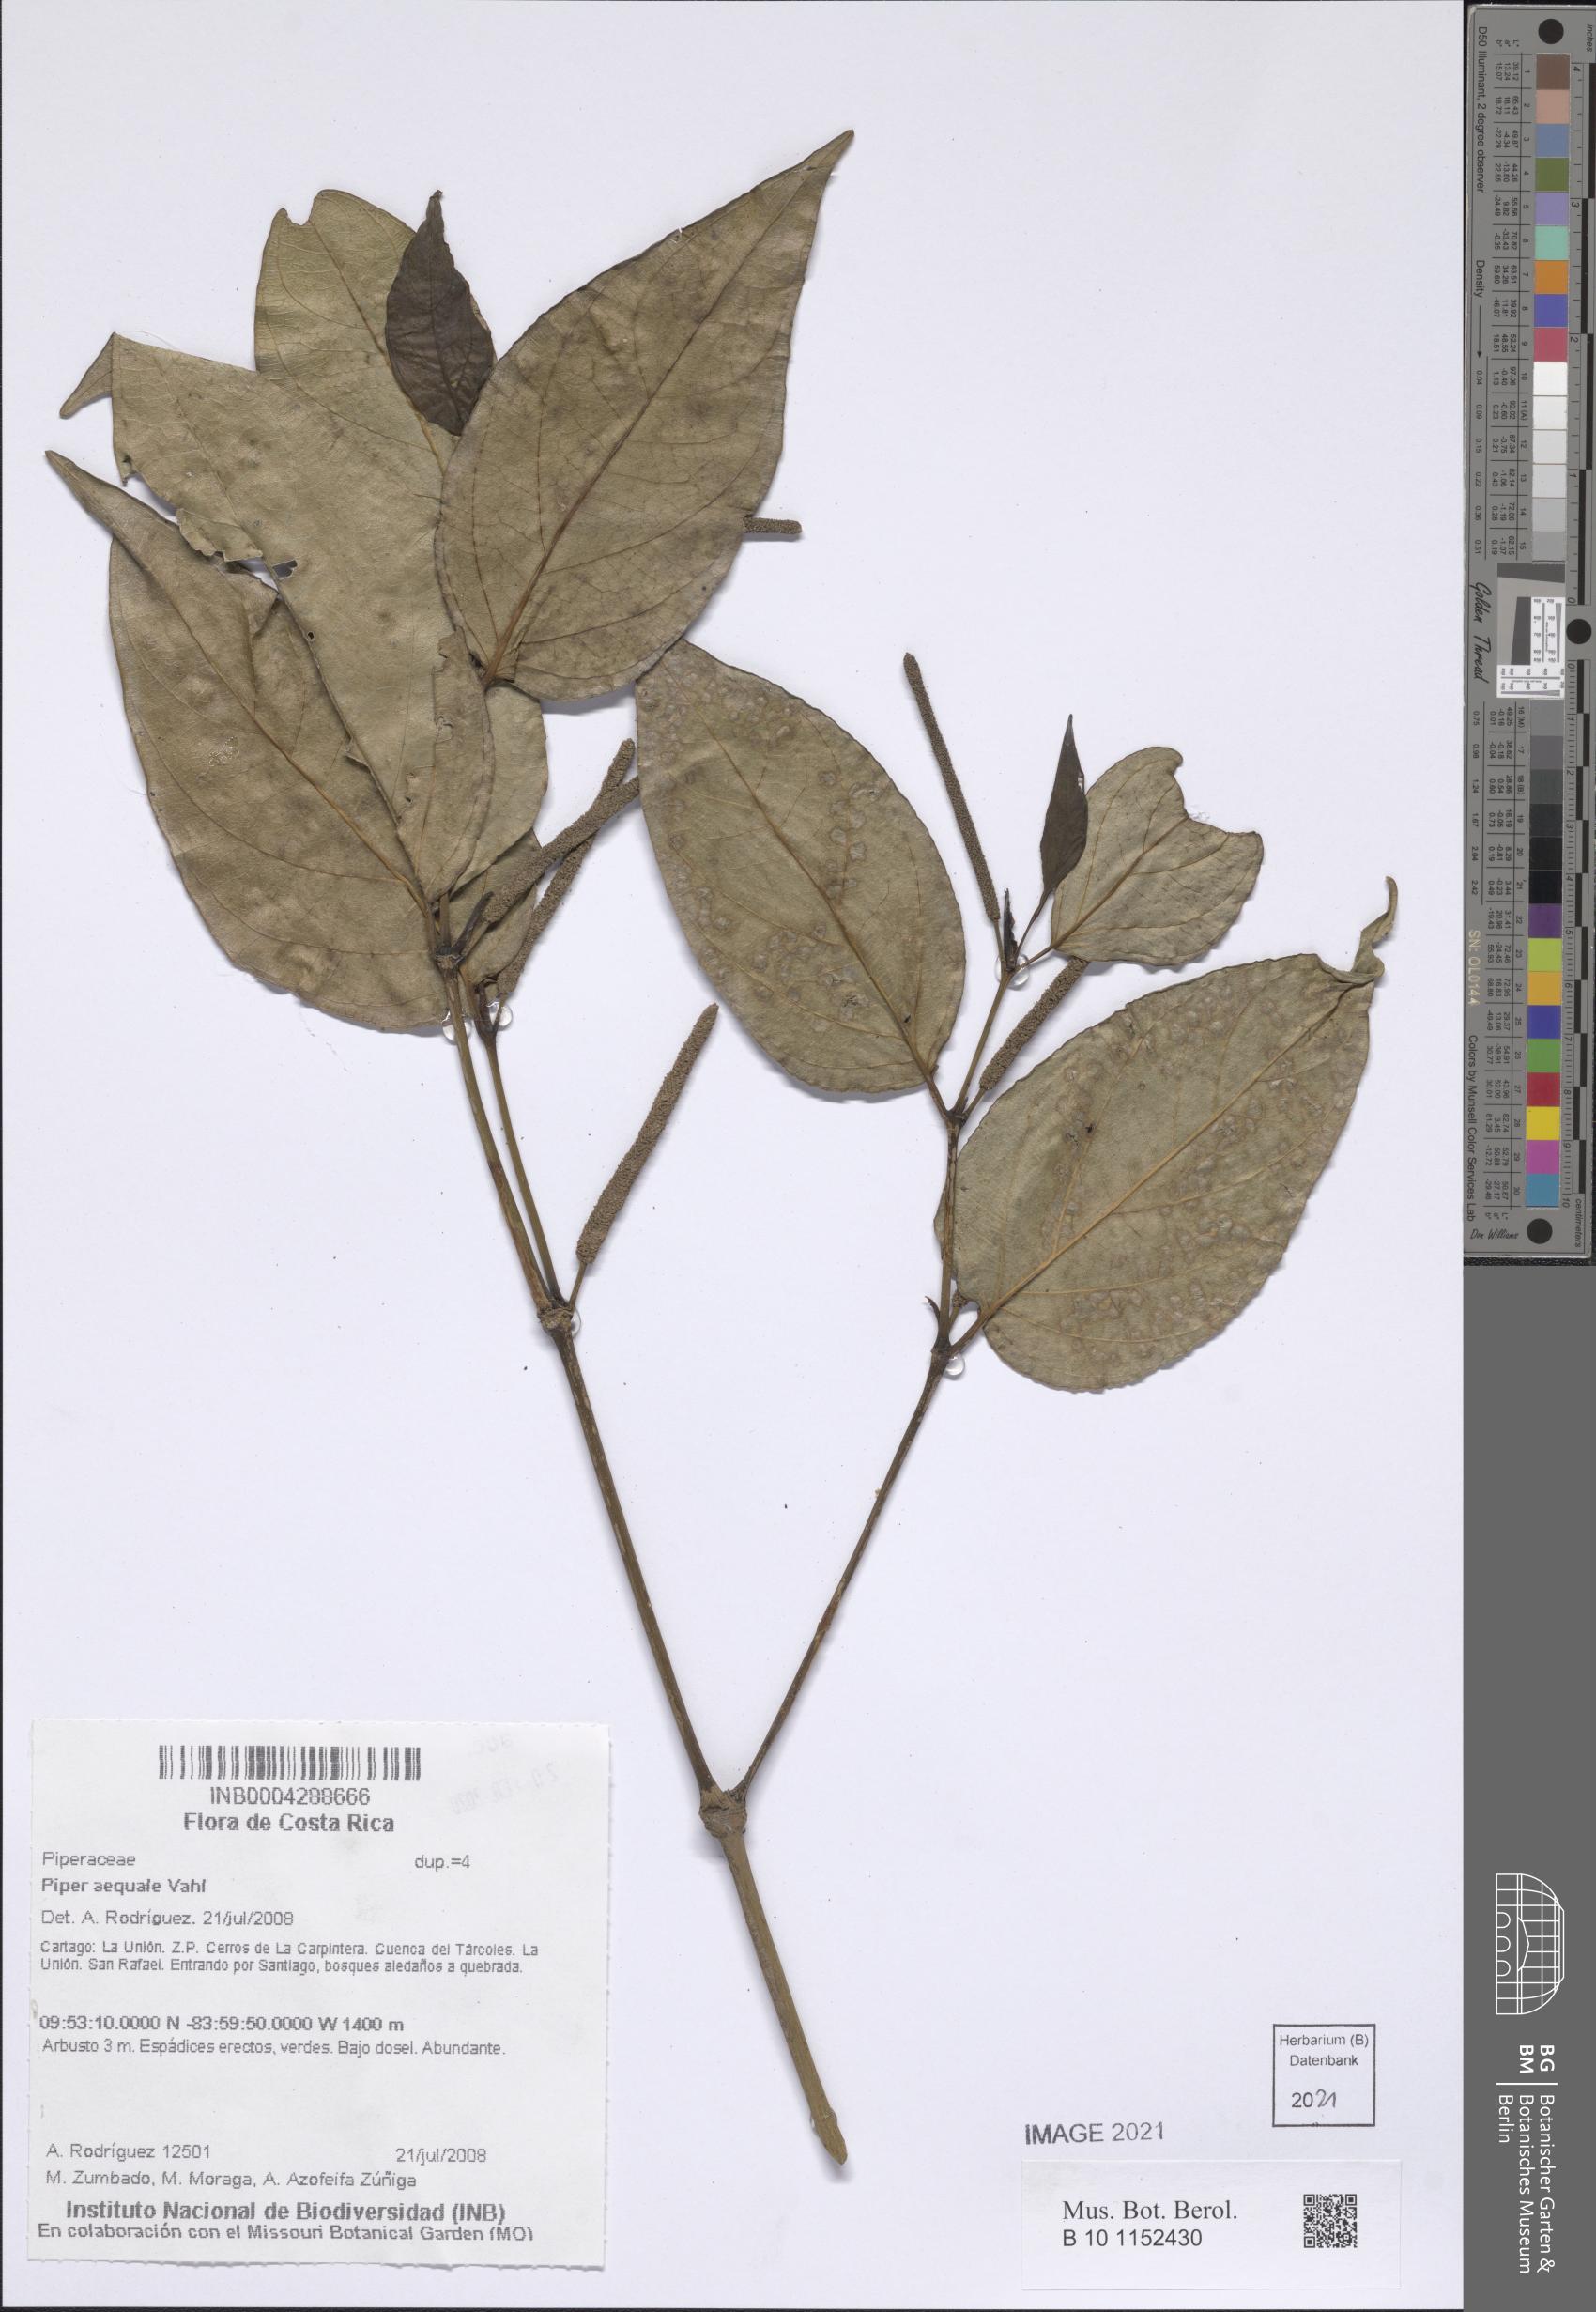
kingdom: Plantae
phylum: Tracheophyta
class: Magnoliopsida
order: Piperales
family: Piperaceae
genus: Piper
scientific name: Piper aequale
